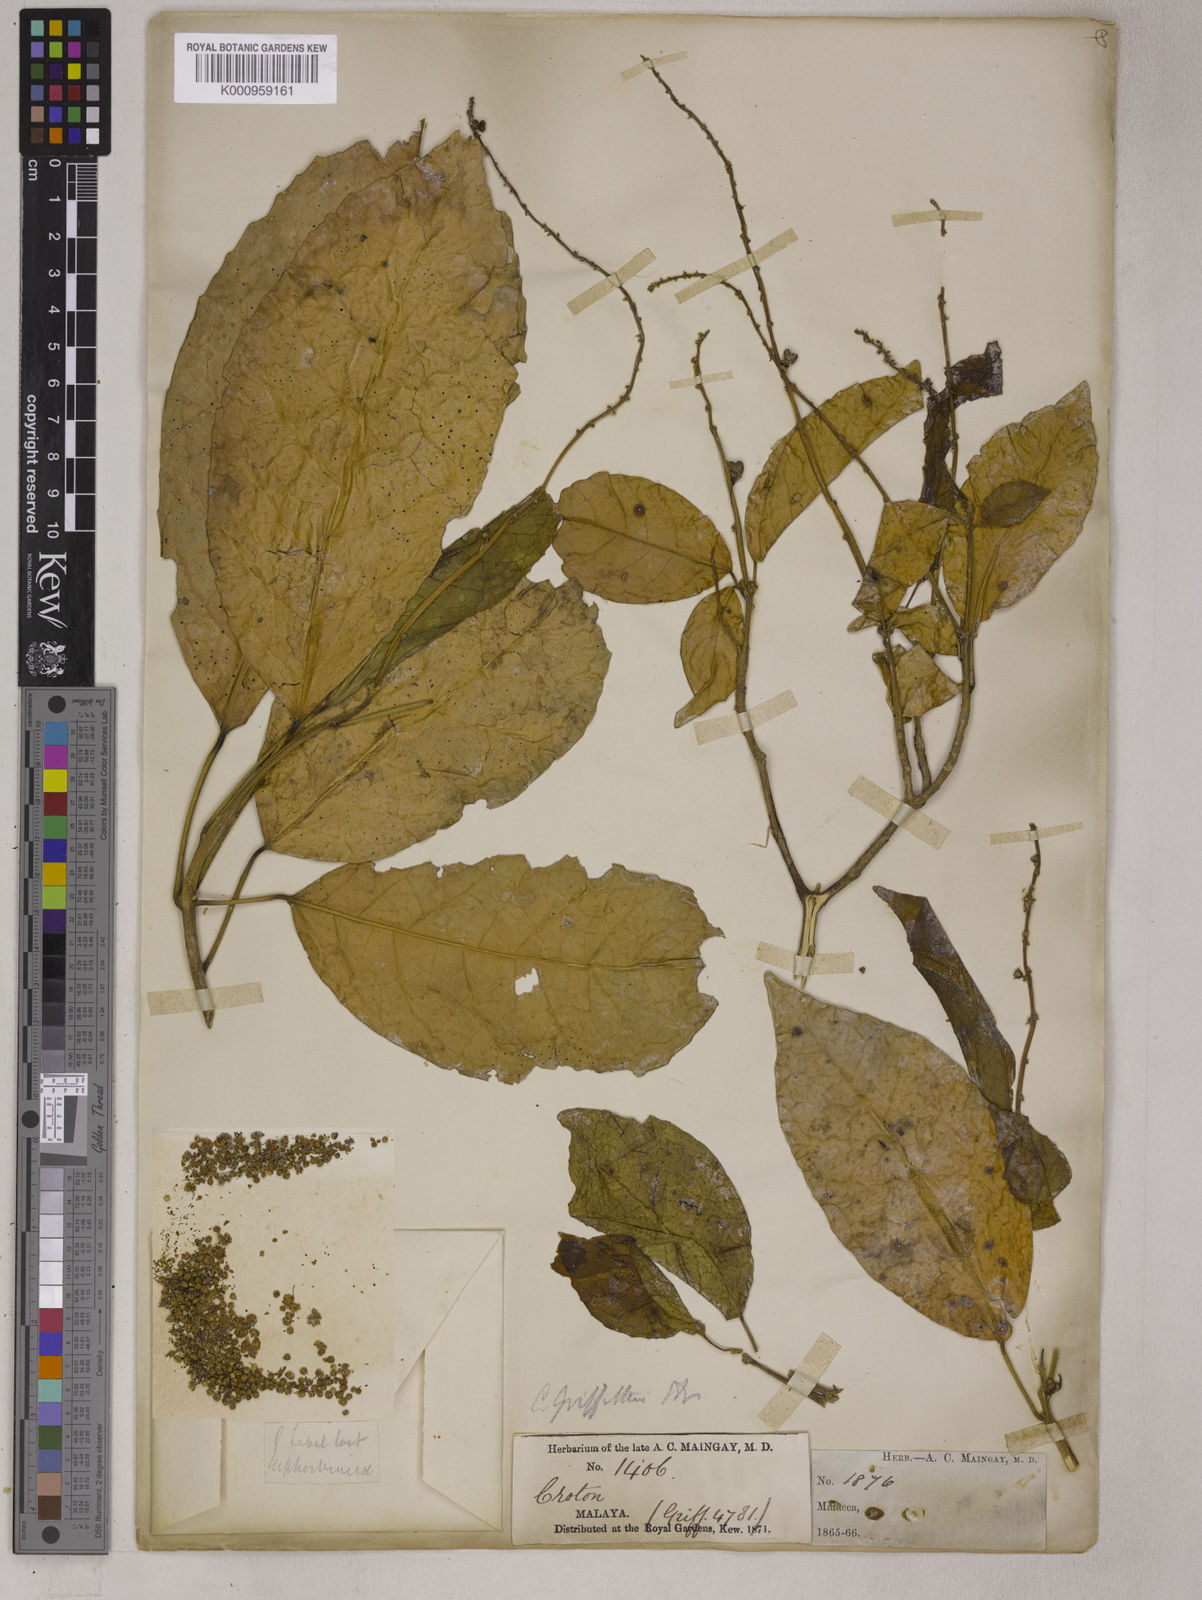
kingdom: Plantae
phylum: Tracheophyta
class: Magnoliopsida
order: Malpighiales
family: Euphorbiaceae
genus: Croton
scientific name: Croton griffithii
